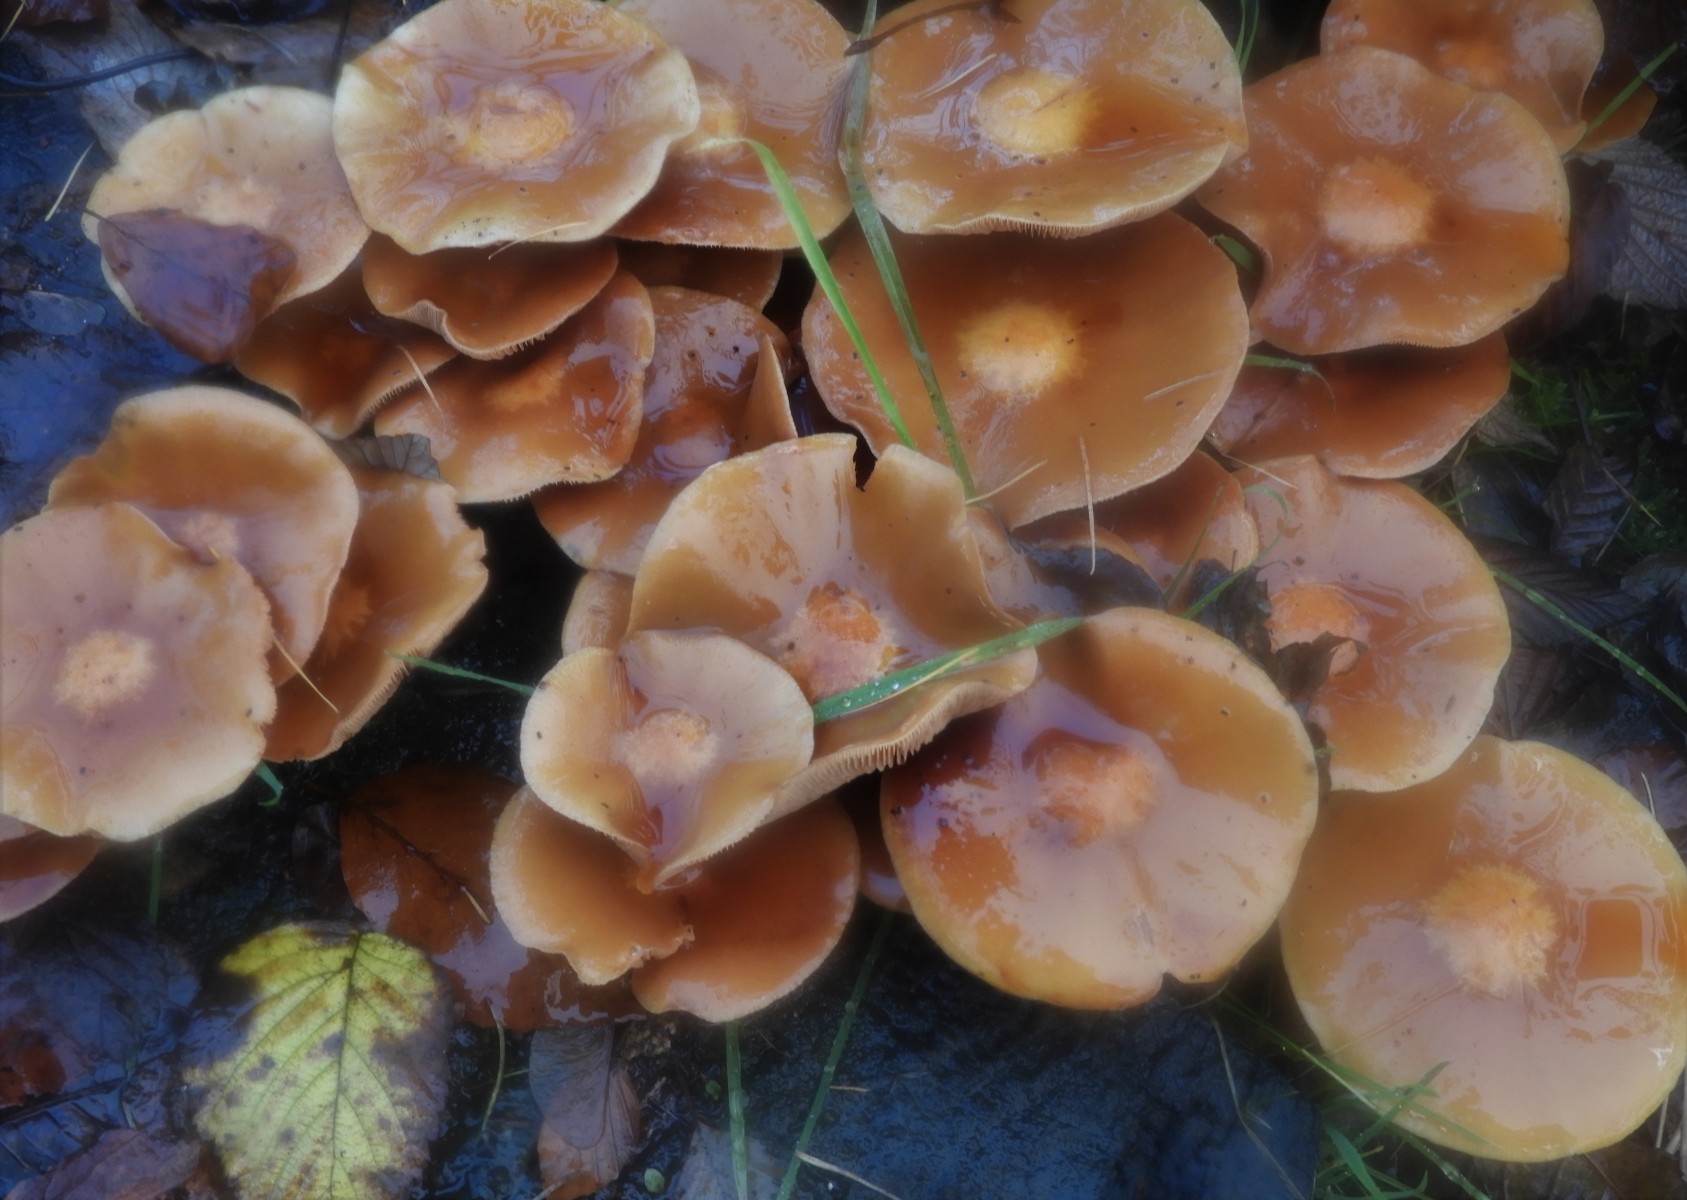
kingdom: Fungi
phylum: Basidiomycota
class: Agaricomycetes
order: Agaricales
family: Strophariaceae
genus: Kuehneromyces
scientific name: Kuehneromyces mutabilis
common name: foranderlig skælhat
